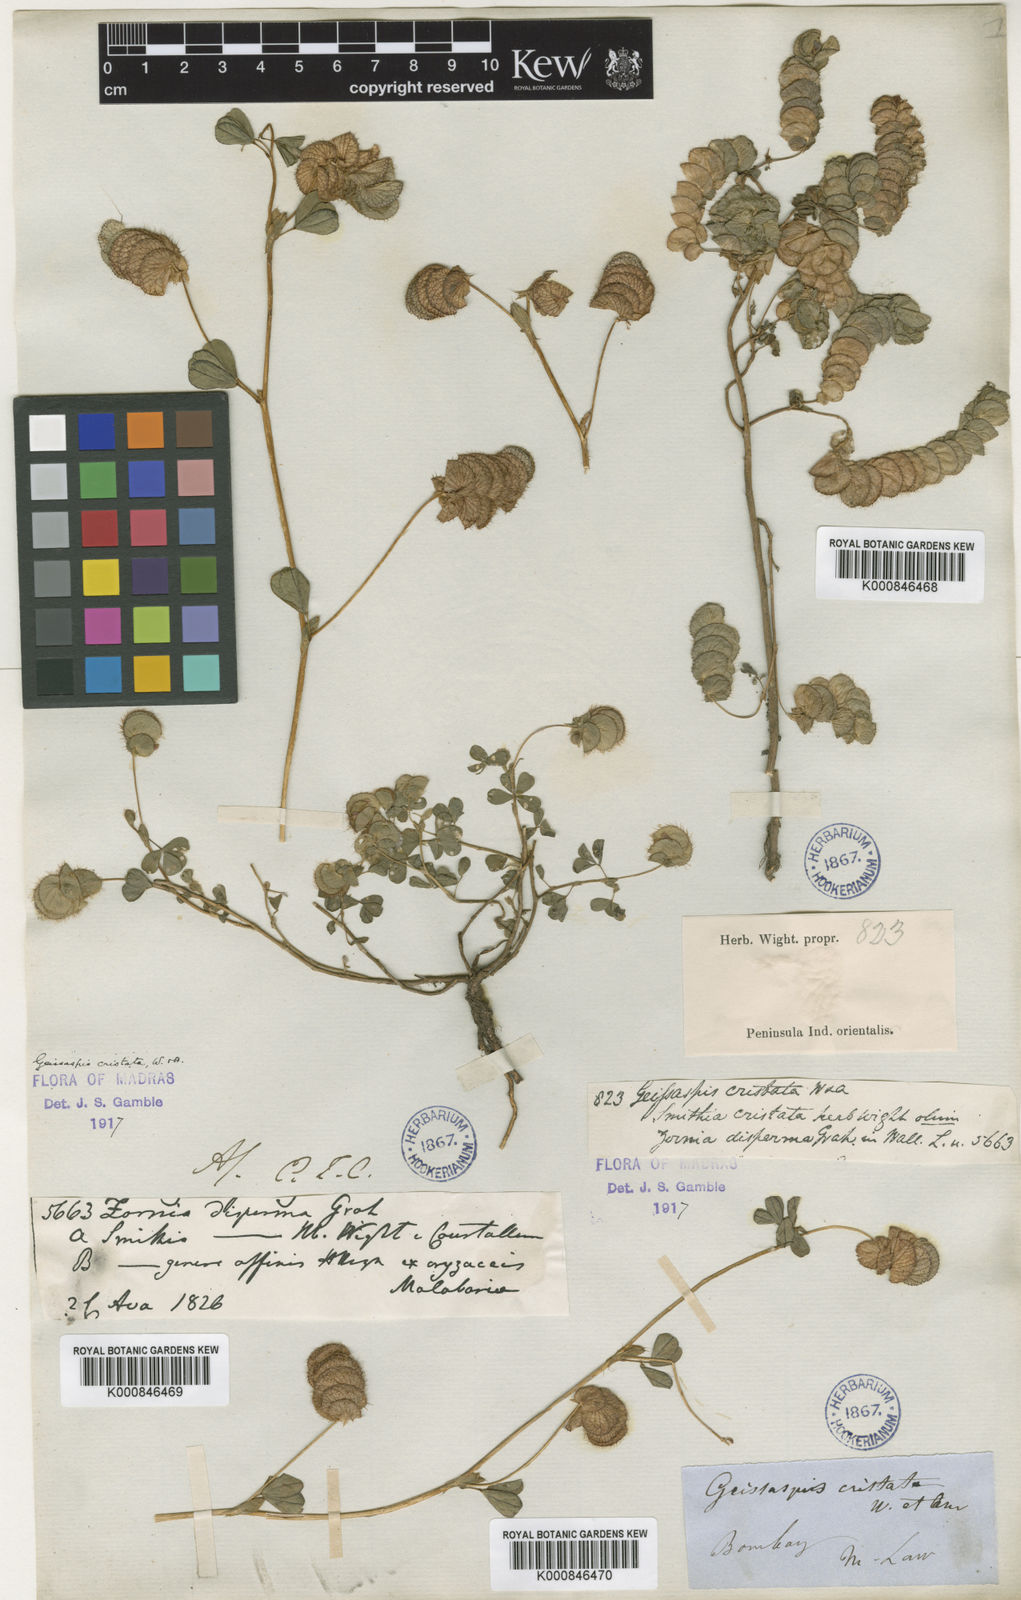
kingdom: Plantae
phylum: Tracheophyta
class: Magnoliopsida
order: Fabales
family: Fabaceae
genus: Geissaspis
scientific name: Geissaspis cristata
